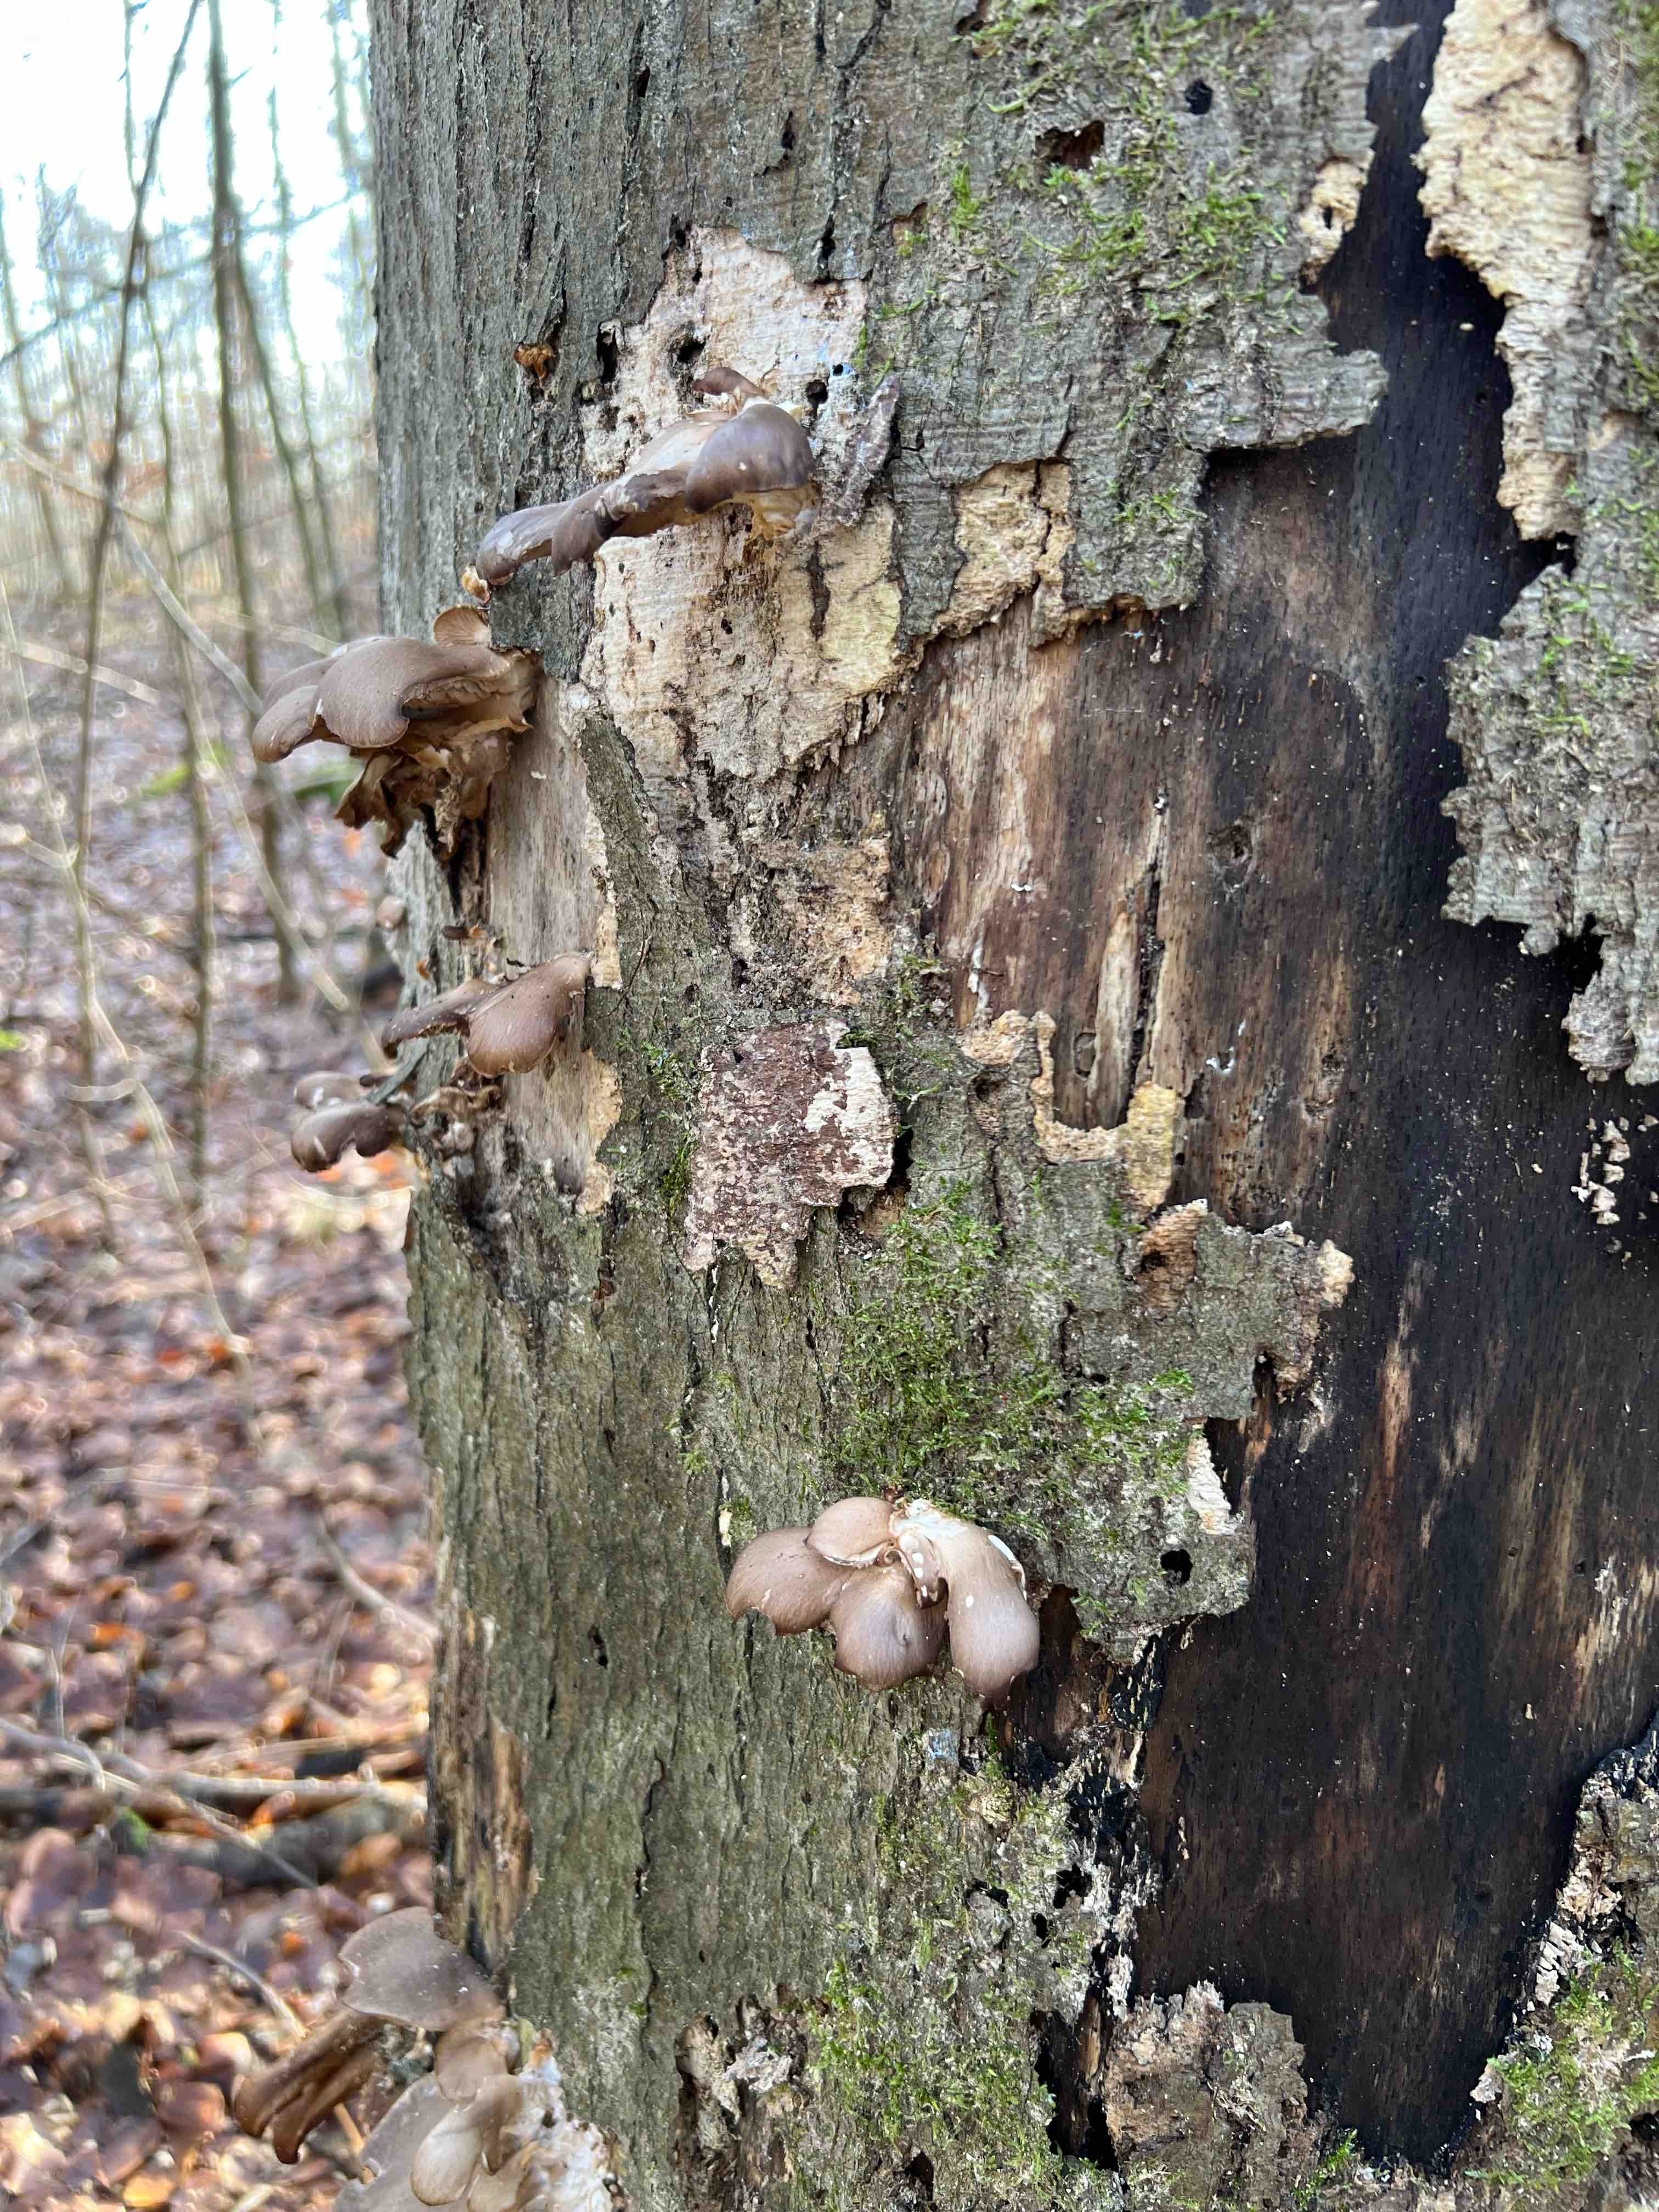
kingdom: Fungi
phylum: Basidiomycota
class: Agaricomycetes
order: Agaricales
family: Pleurotaceae
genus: Pleurotus
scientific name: Pleurotus ostreatus
